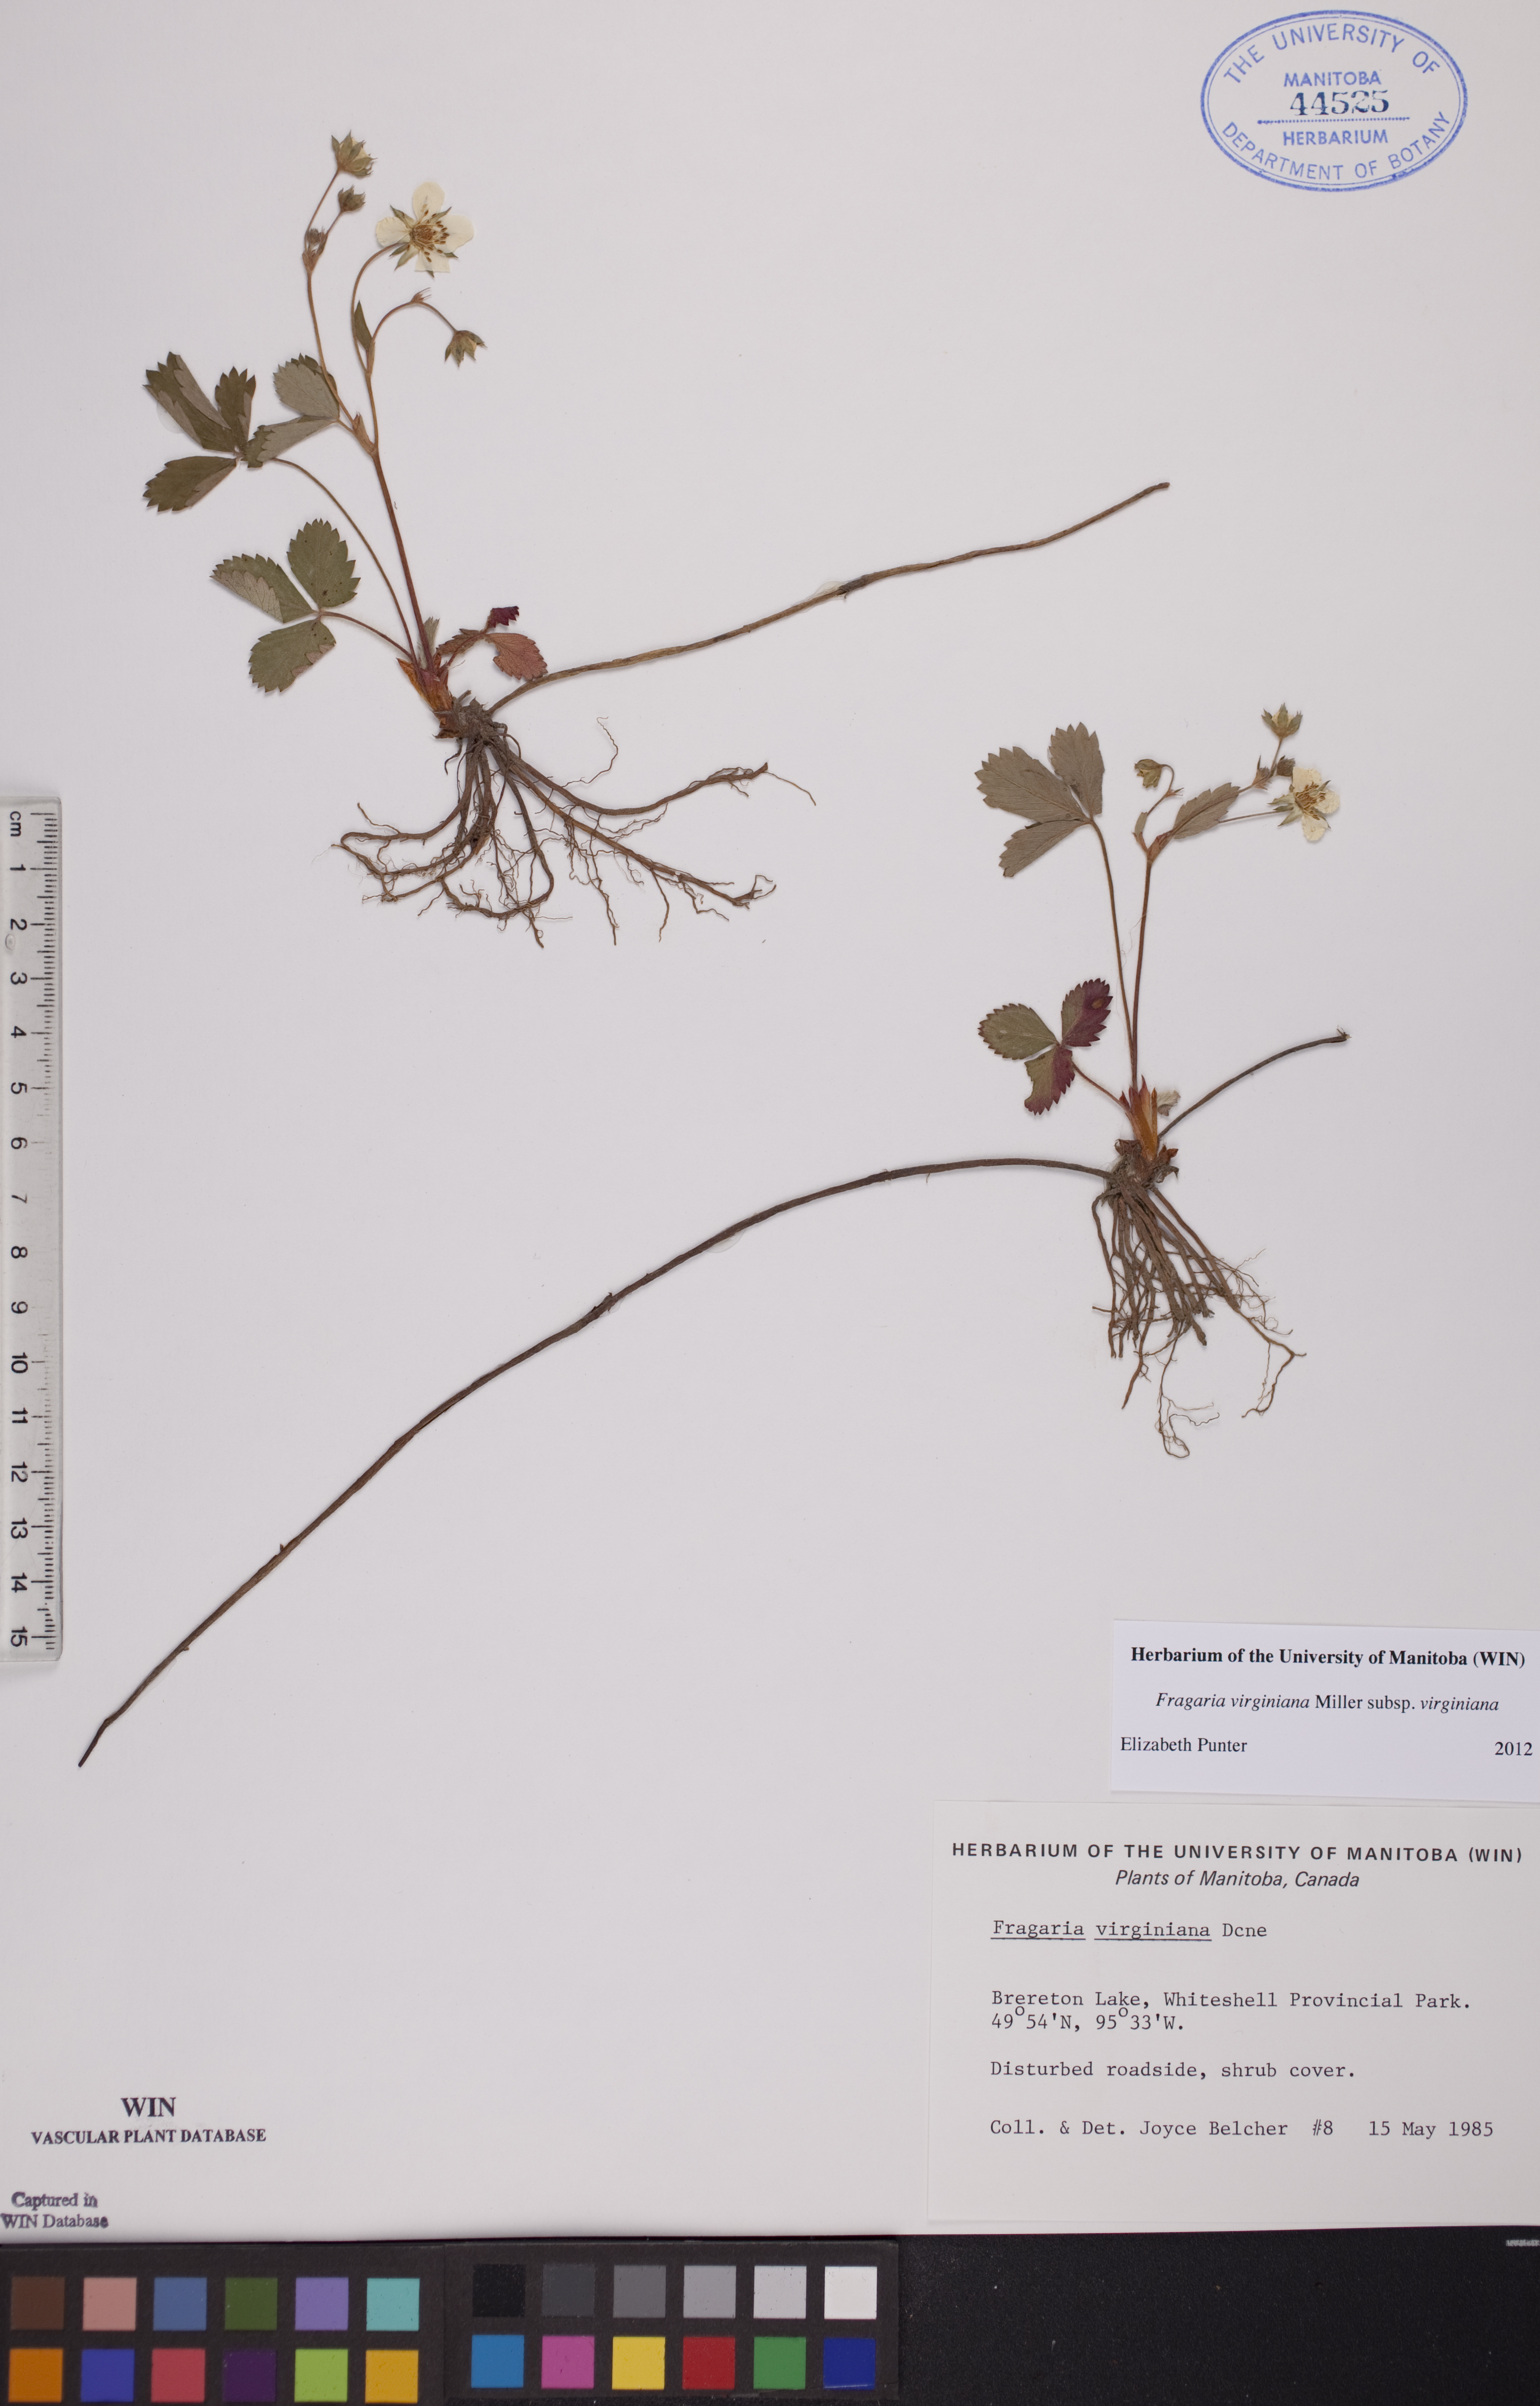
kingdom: Plantae
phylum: Tracheophyta
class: Magnoliopsida
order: Rosales
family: Rosaceae
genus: Fragaria
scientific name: Fragaria virginiana
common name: Thickleaved wild strawberry
